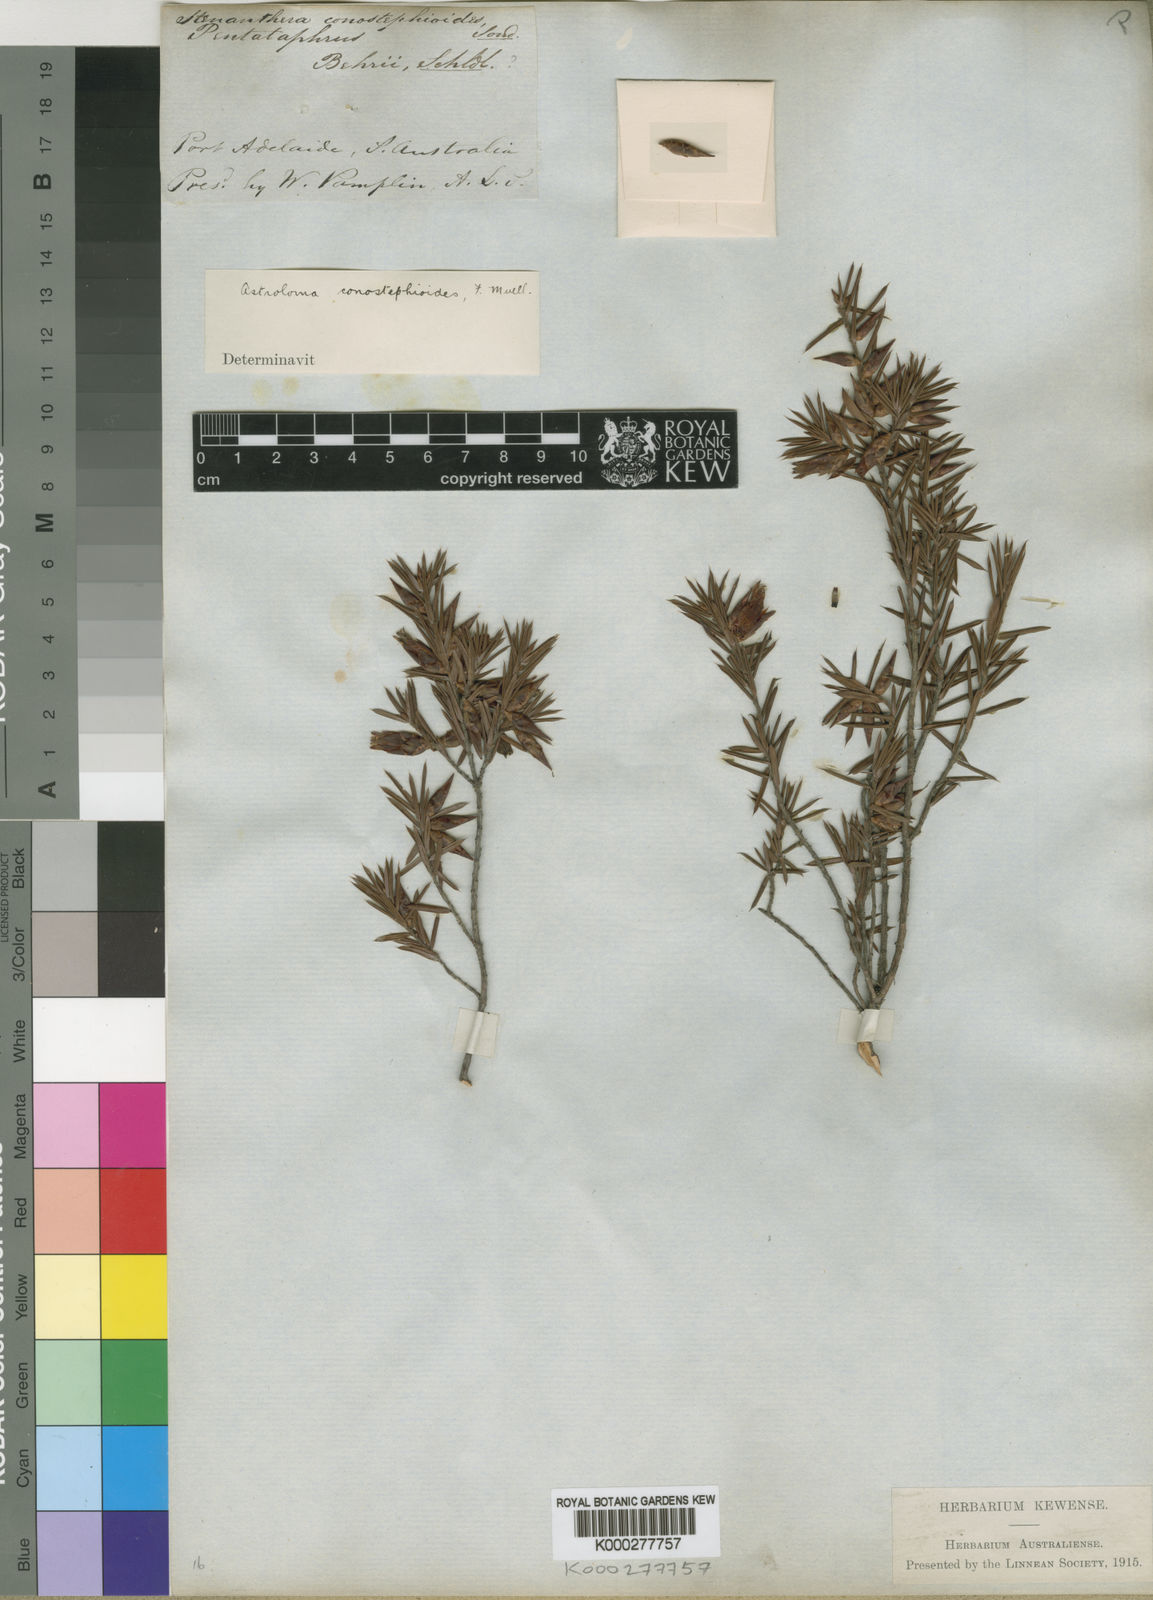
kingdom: Plantae
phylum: Tracheophyta
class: Magnoliopsida
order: Ericales
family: Ericaceae
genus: Stenanthera
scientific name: Stenanthera conostephioides
